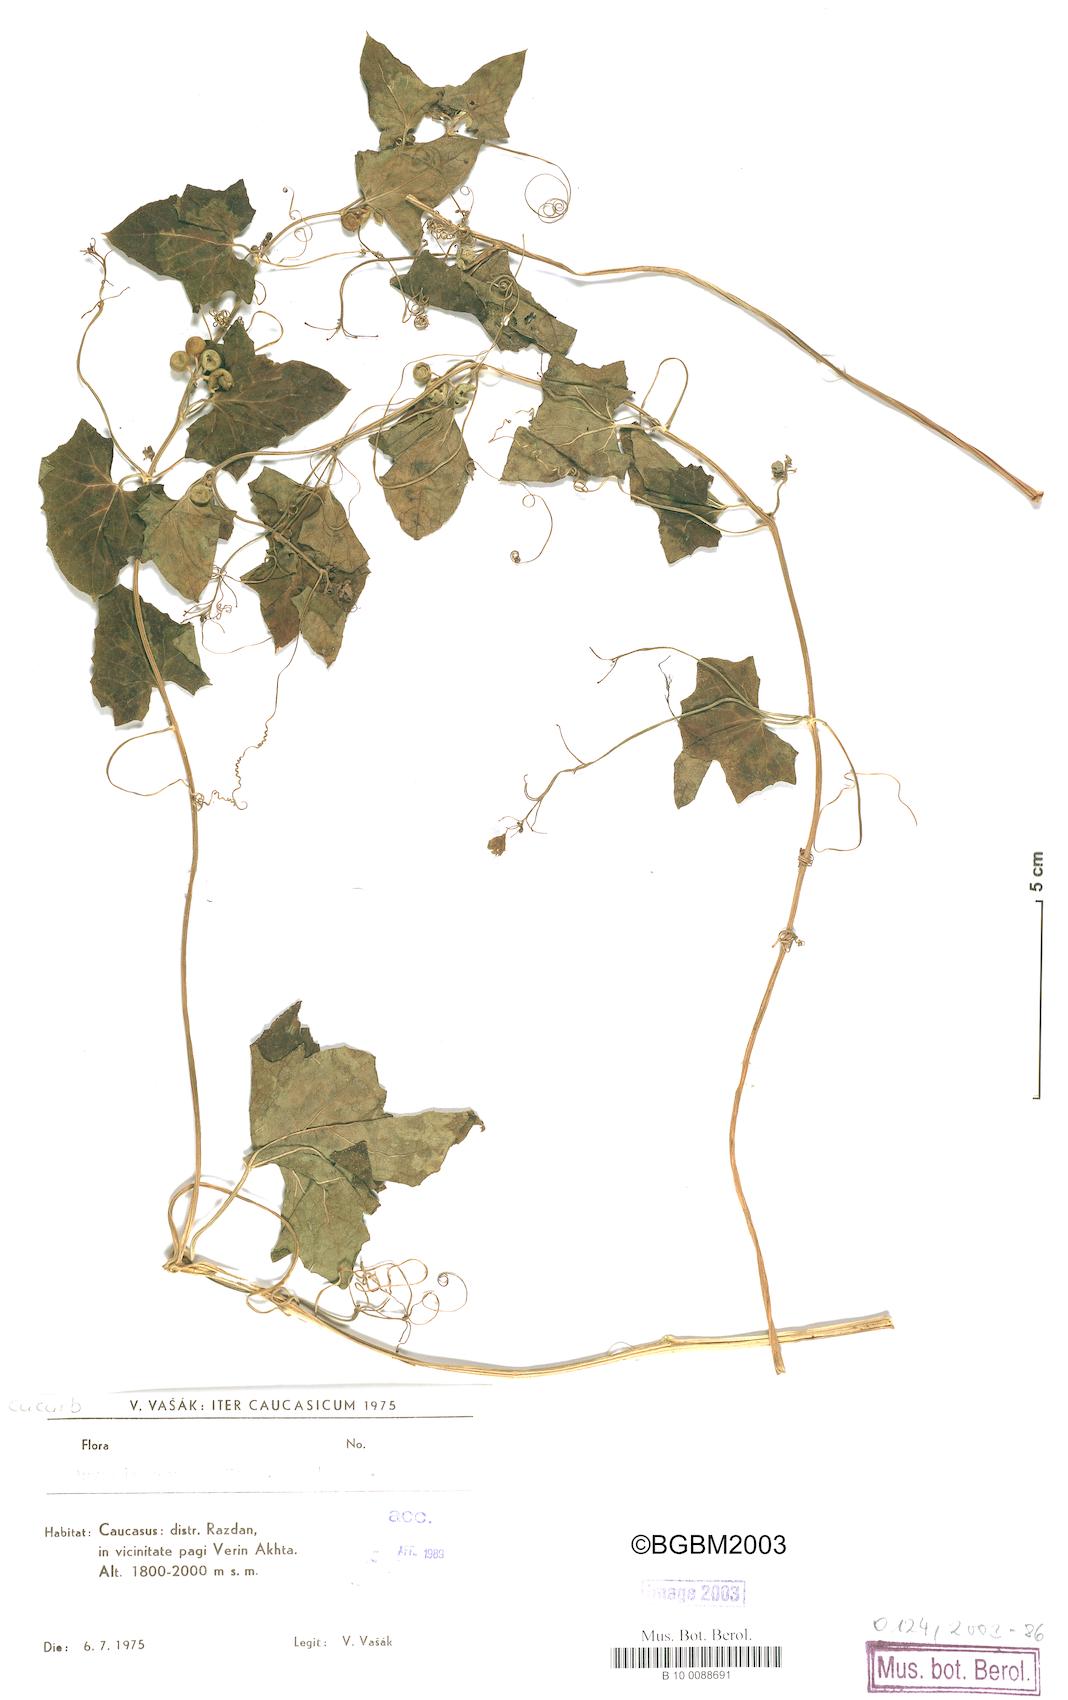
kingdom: Plantae
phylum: Tracheophyta
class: Magnoliopsida
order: Cucurbitales
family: Cucurbitaceae
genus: Bryonia
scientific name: Bryonia aspera
